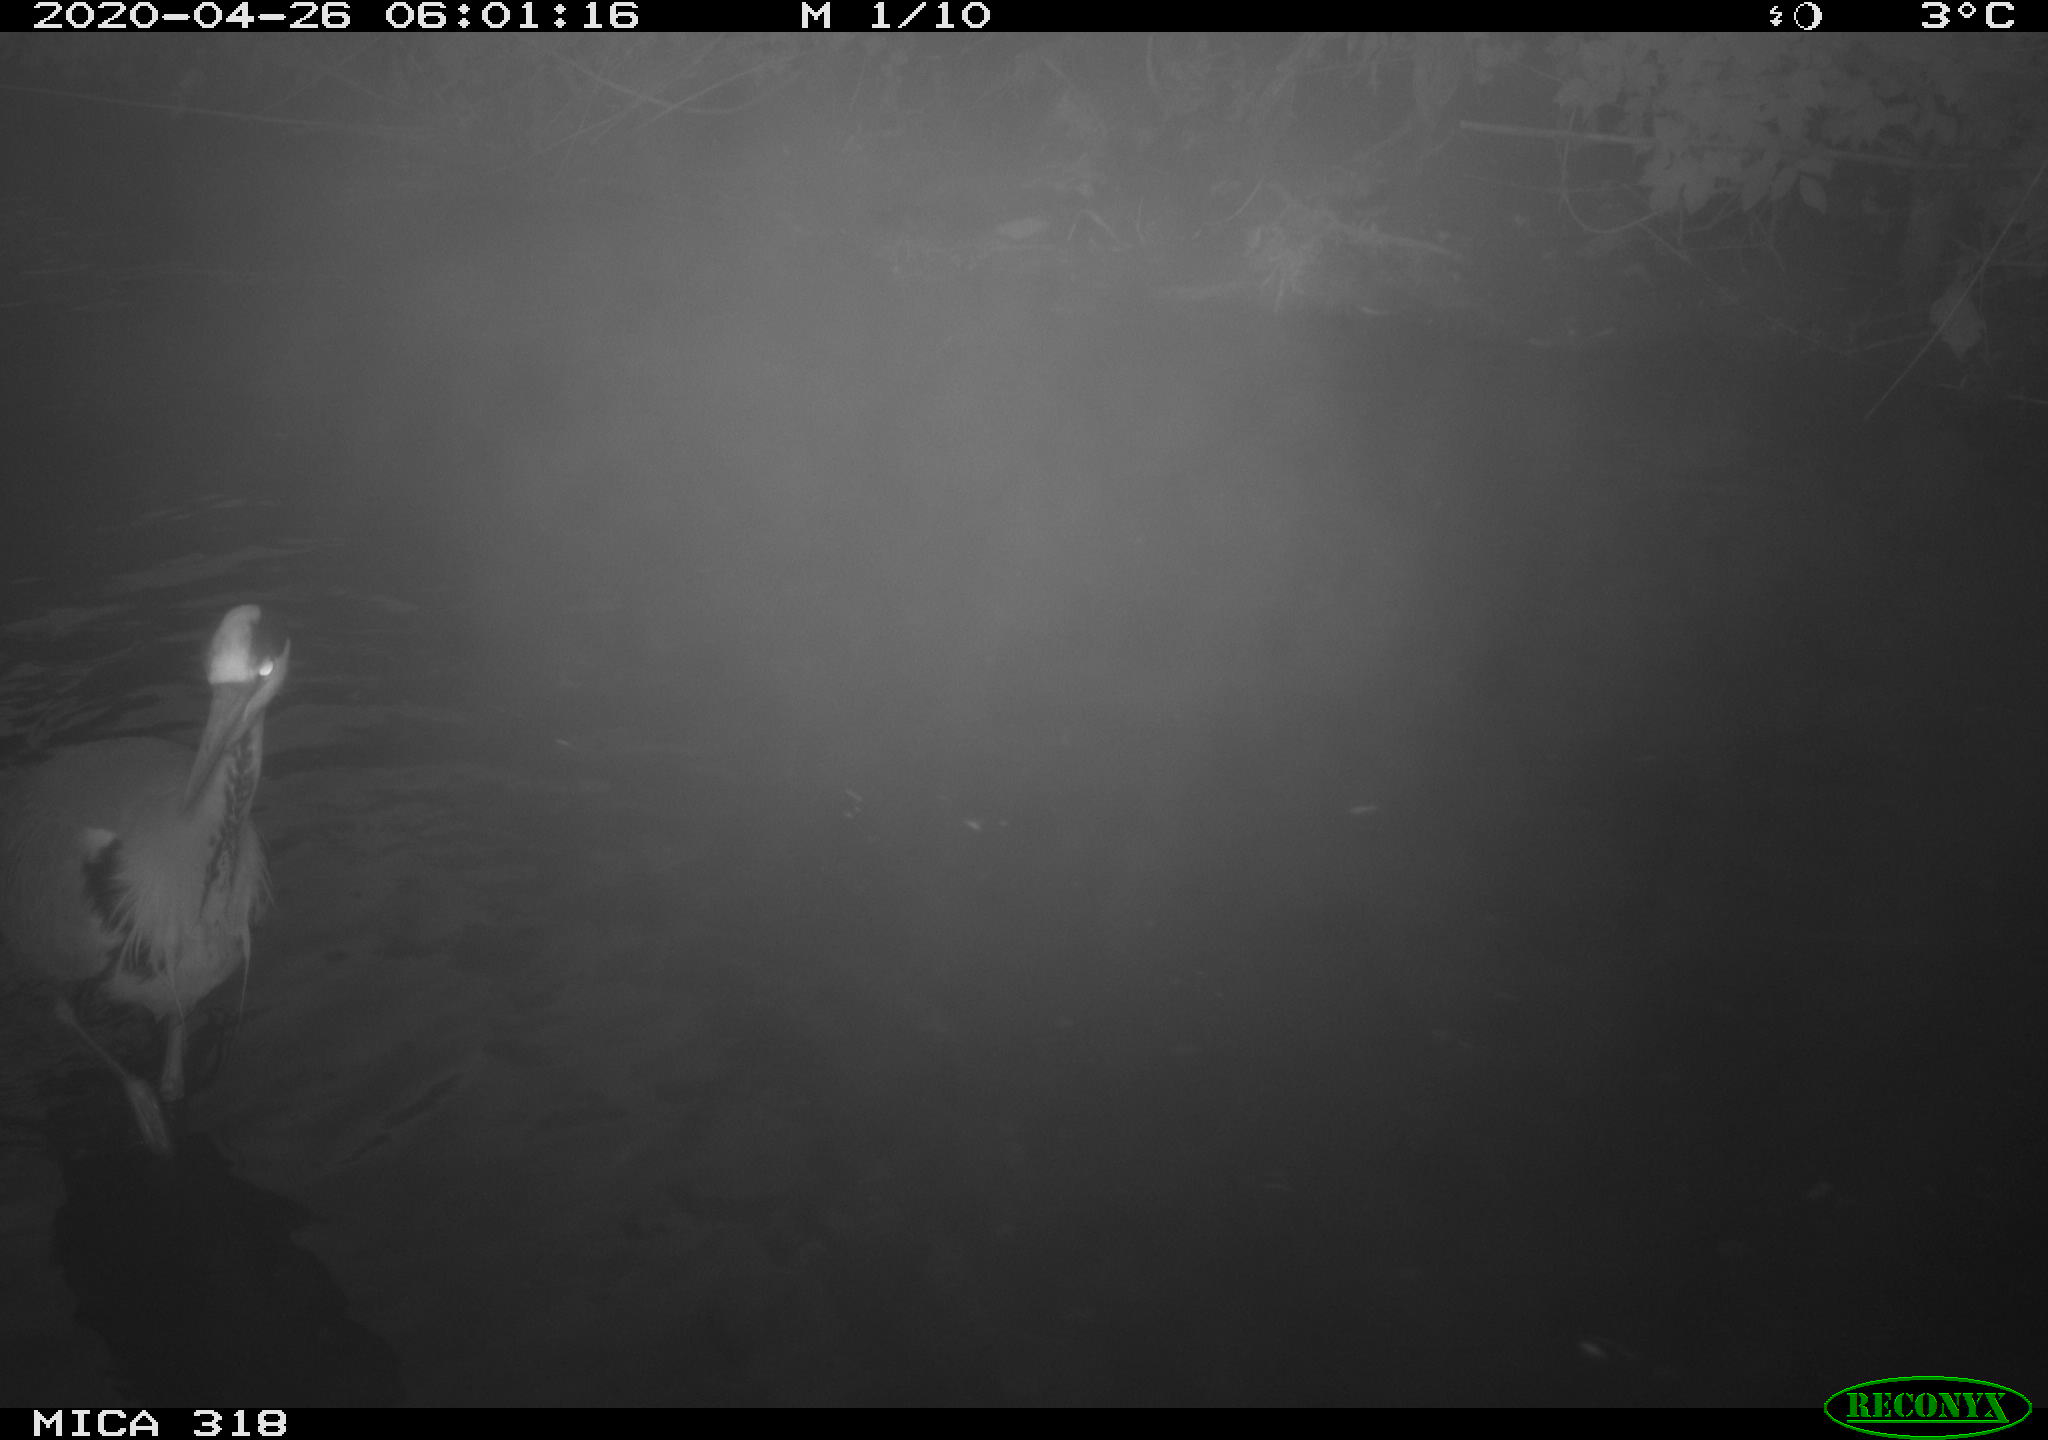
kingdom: Animalia
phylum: Chordata
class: Aves
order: Pelecaniformes
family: Ardeidae
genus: Ardea
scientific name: Ardea cinerea
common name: Grey heron
